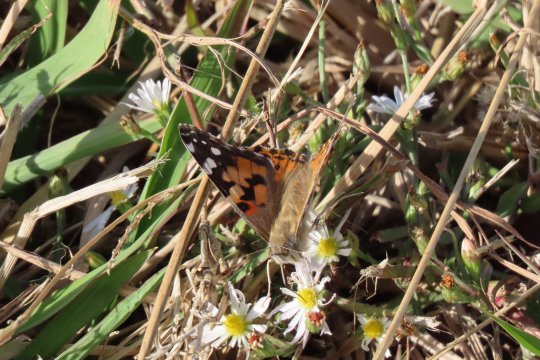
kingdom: Animalia
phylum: Arthropoda
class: Insecta
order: Lepidoptera
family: Nymphalidae
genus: Vanessa
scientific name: Vanessa cardui
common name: Painted Lady
